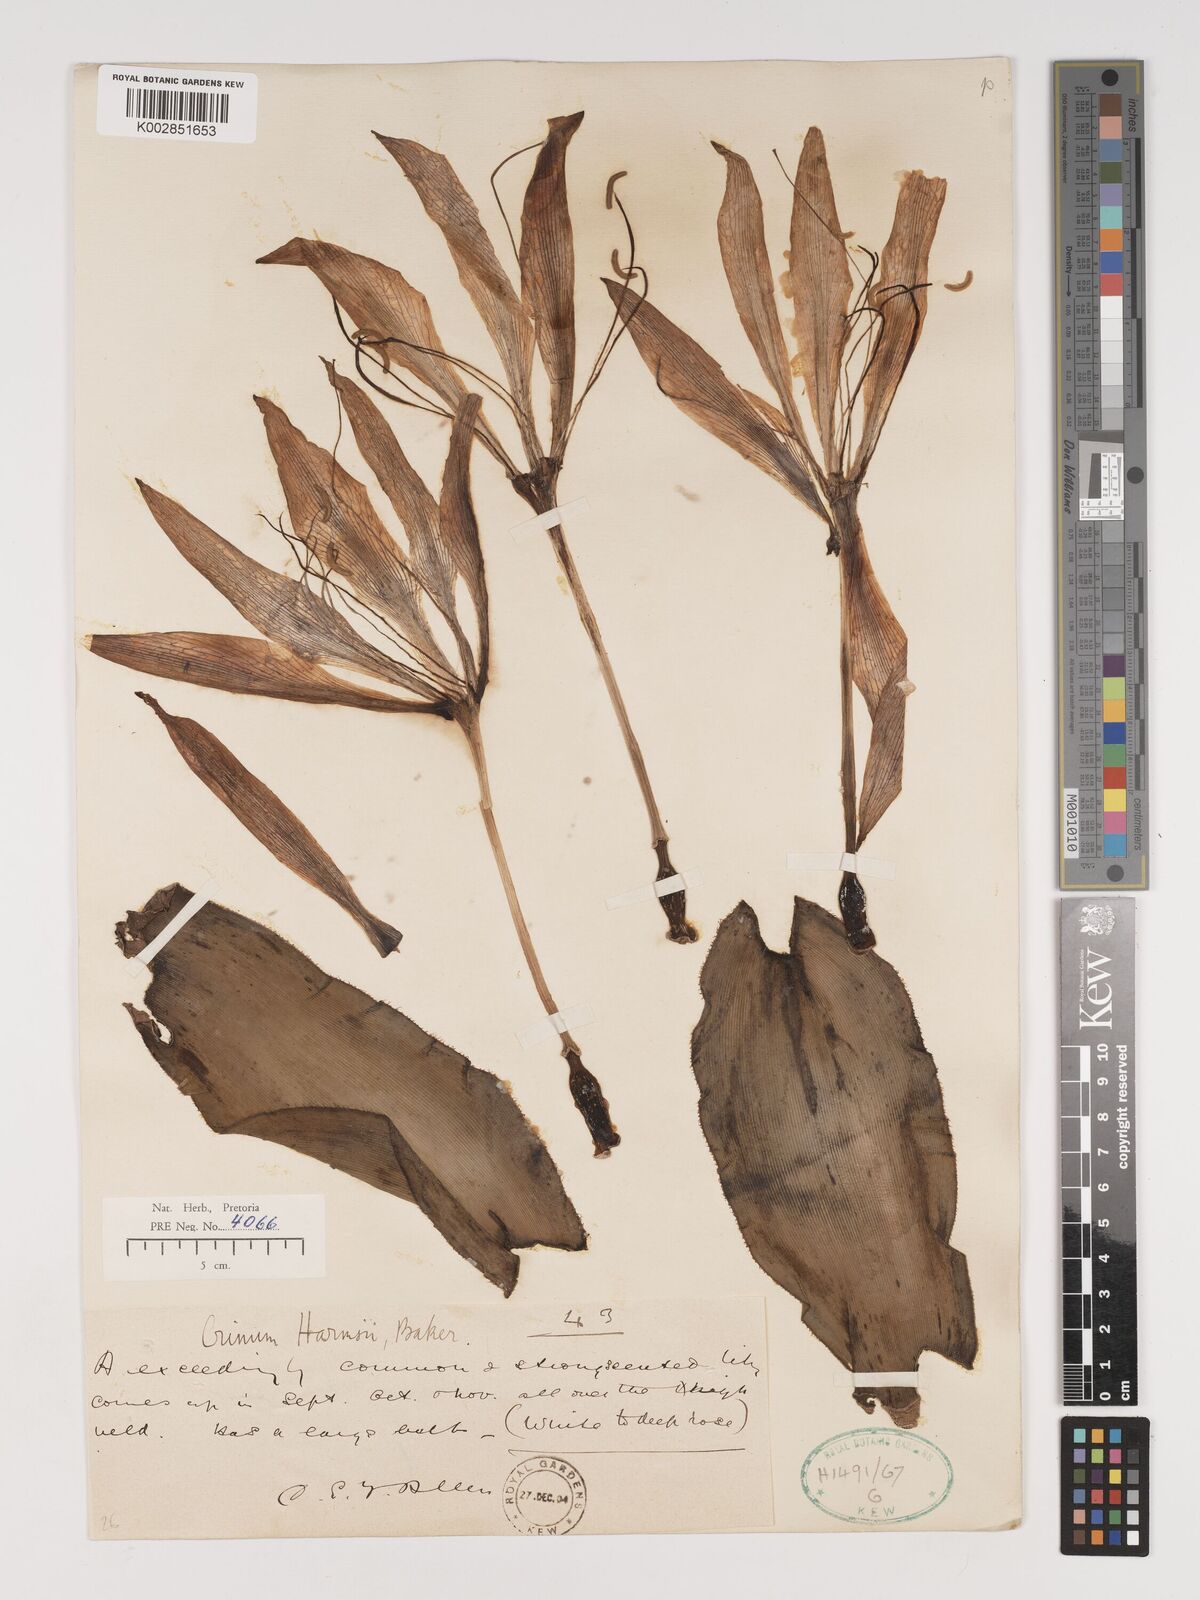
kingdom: Plantae
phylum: Tracheophyta
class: Liliopsida
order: Asparagales
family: Amaryllidaceae
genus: Crinum
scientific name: Crinum graminicola
